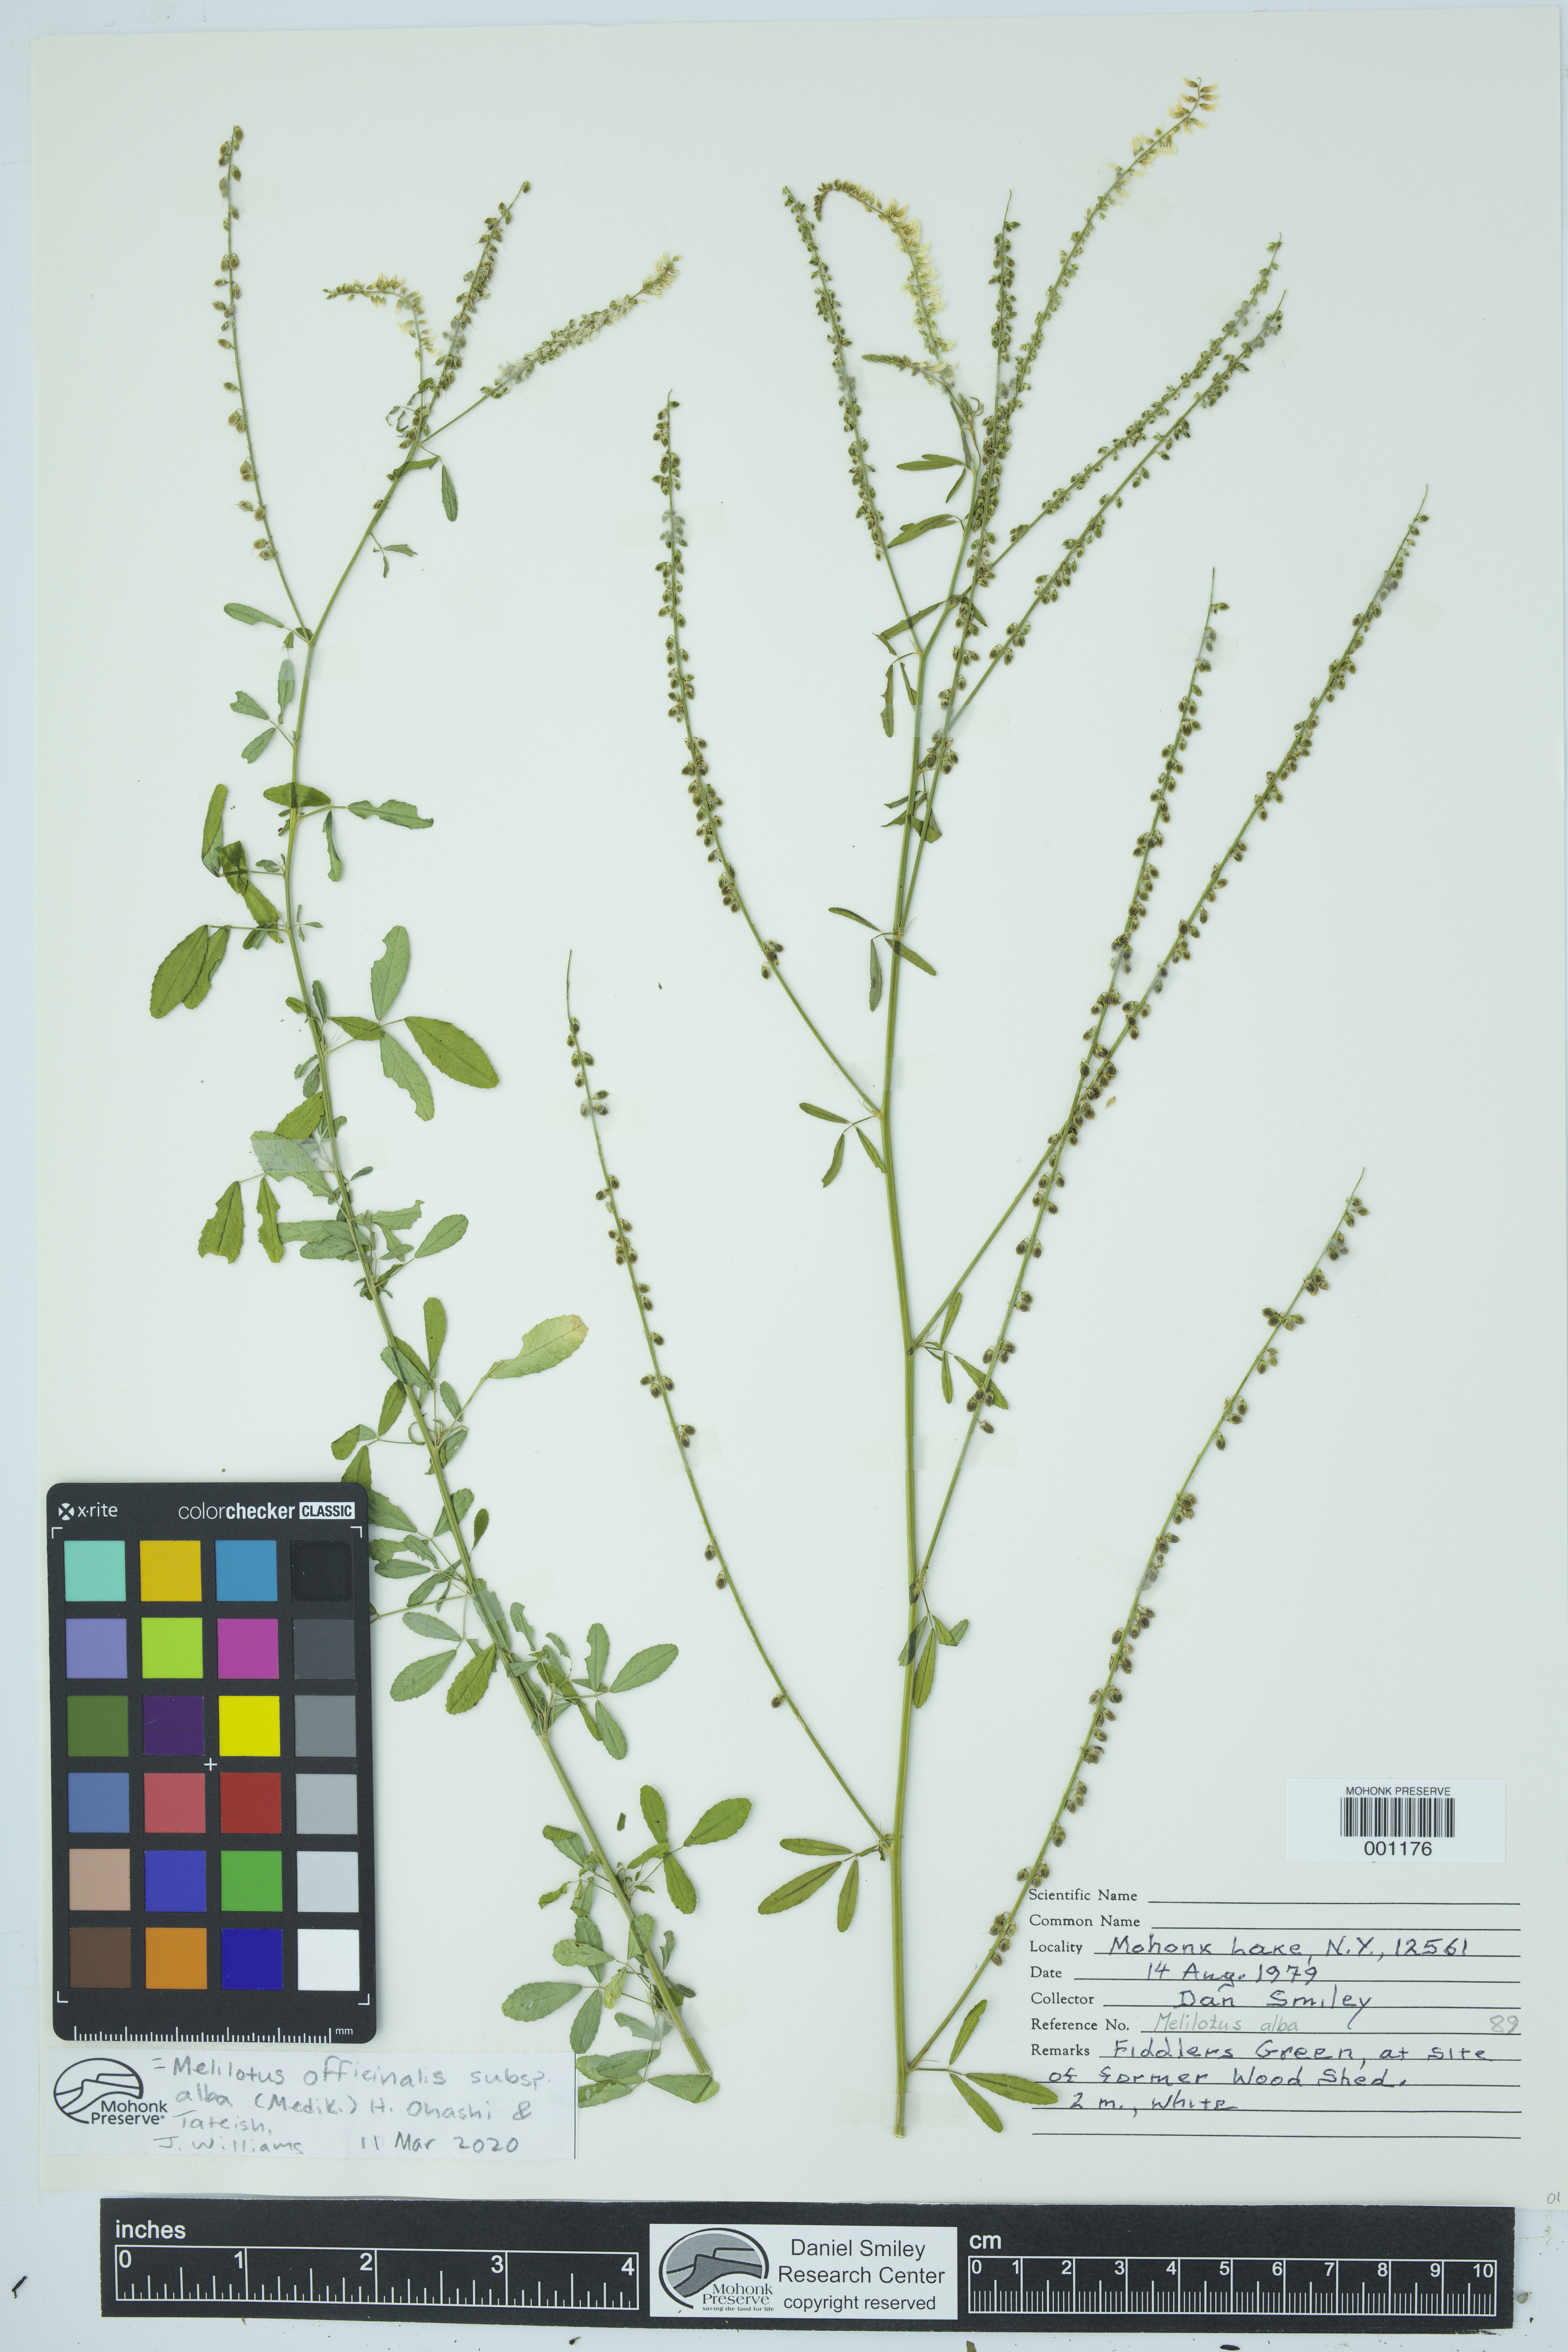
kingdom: Plantae
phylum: Tracheophyta
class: Magnoliopsida
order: Fabales
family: Fabaceae
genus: Melilotus
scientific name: Melilotus albus
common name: White melilot
